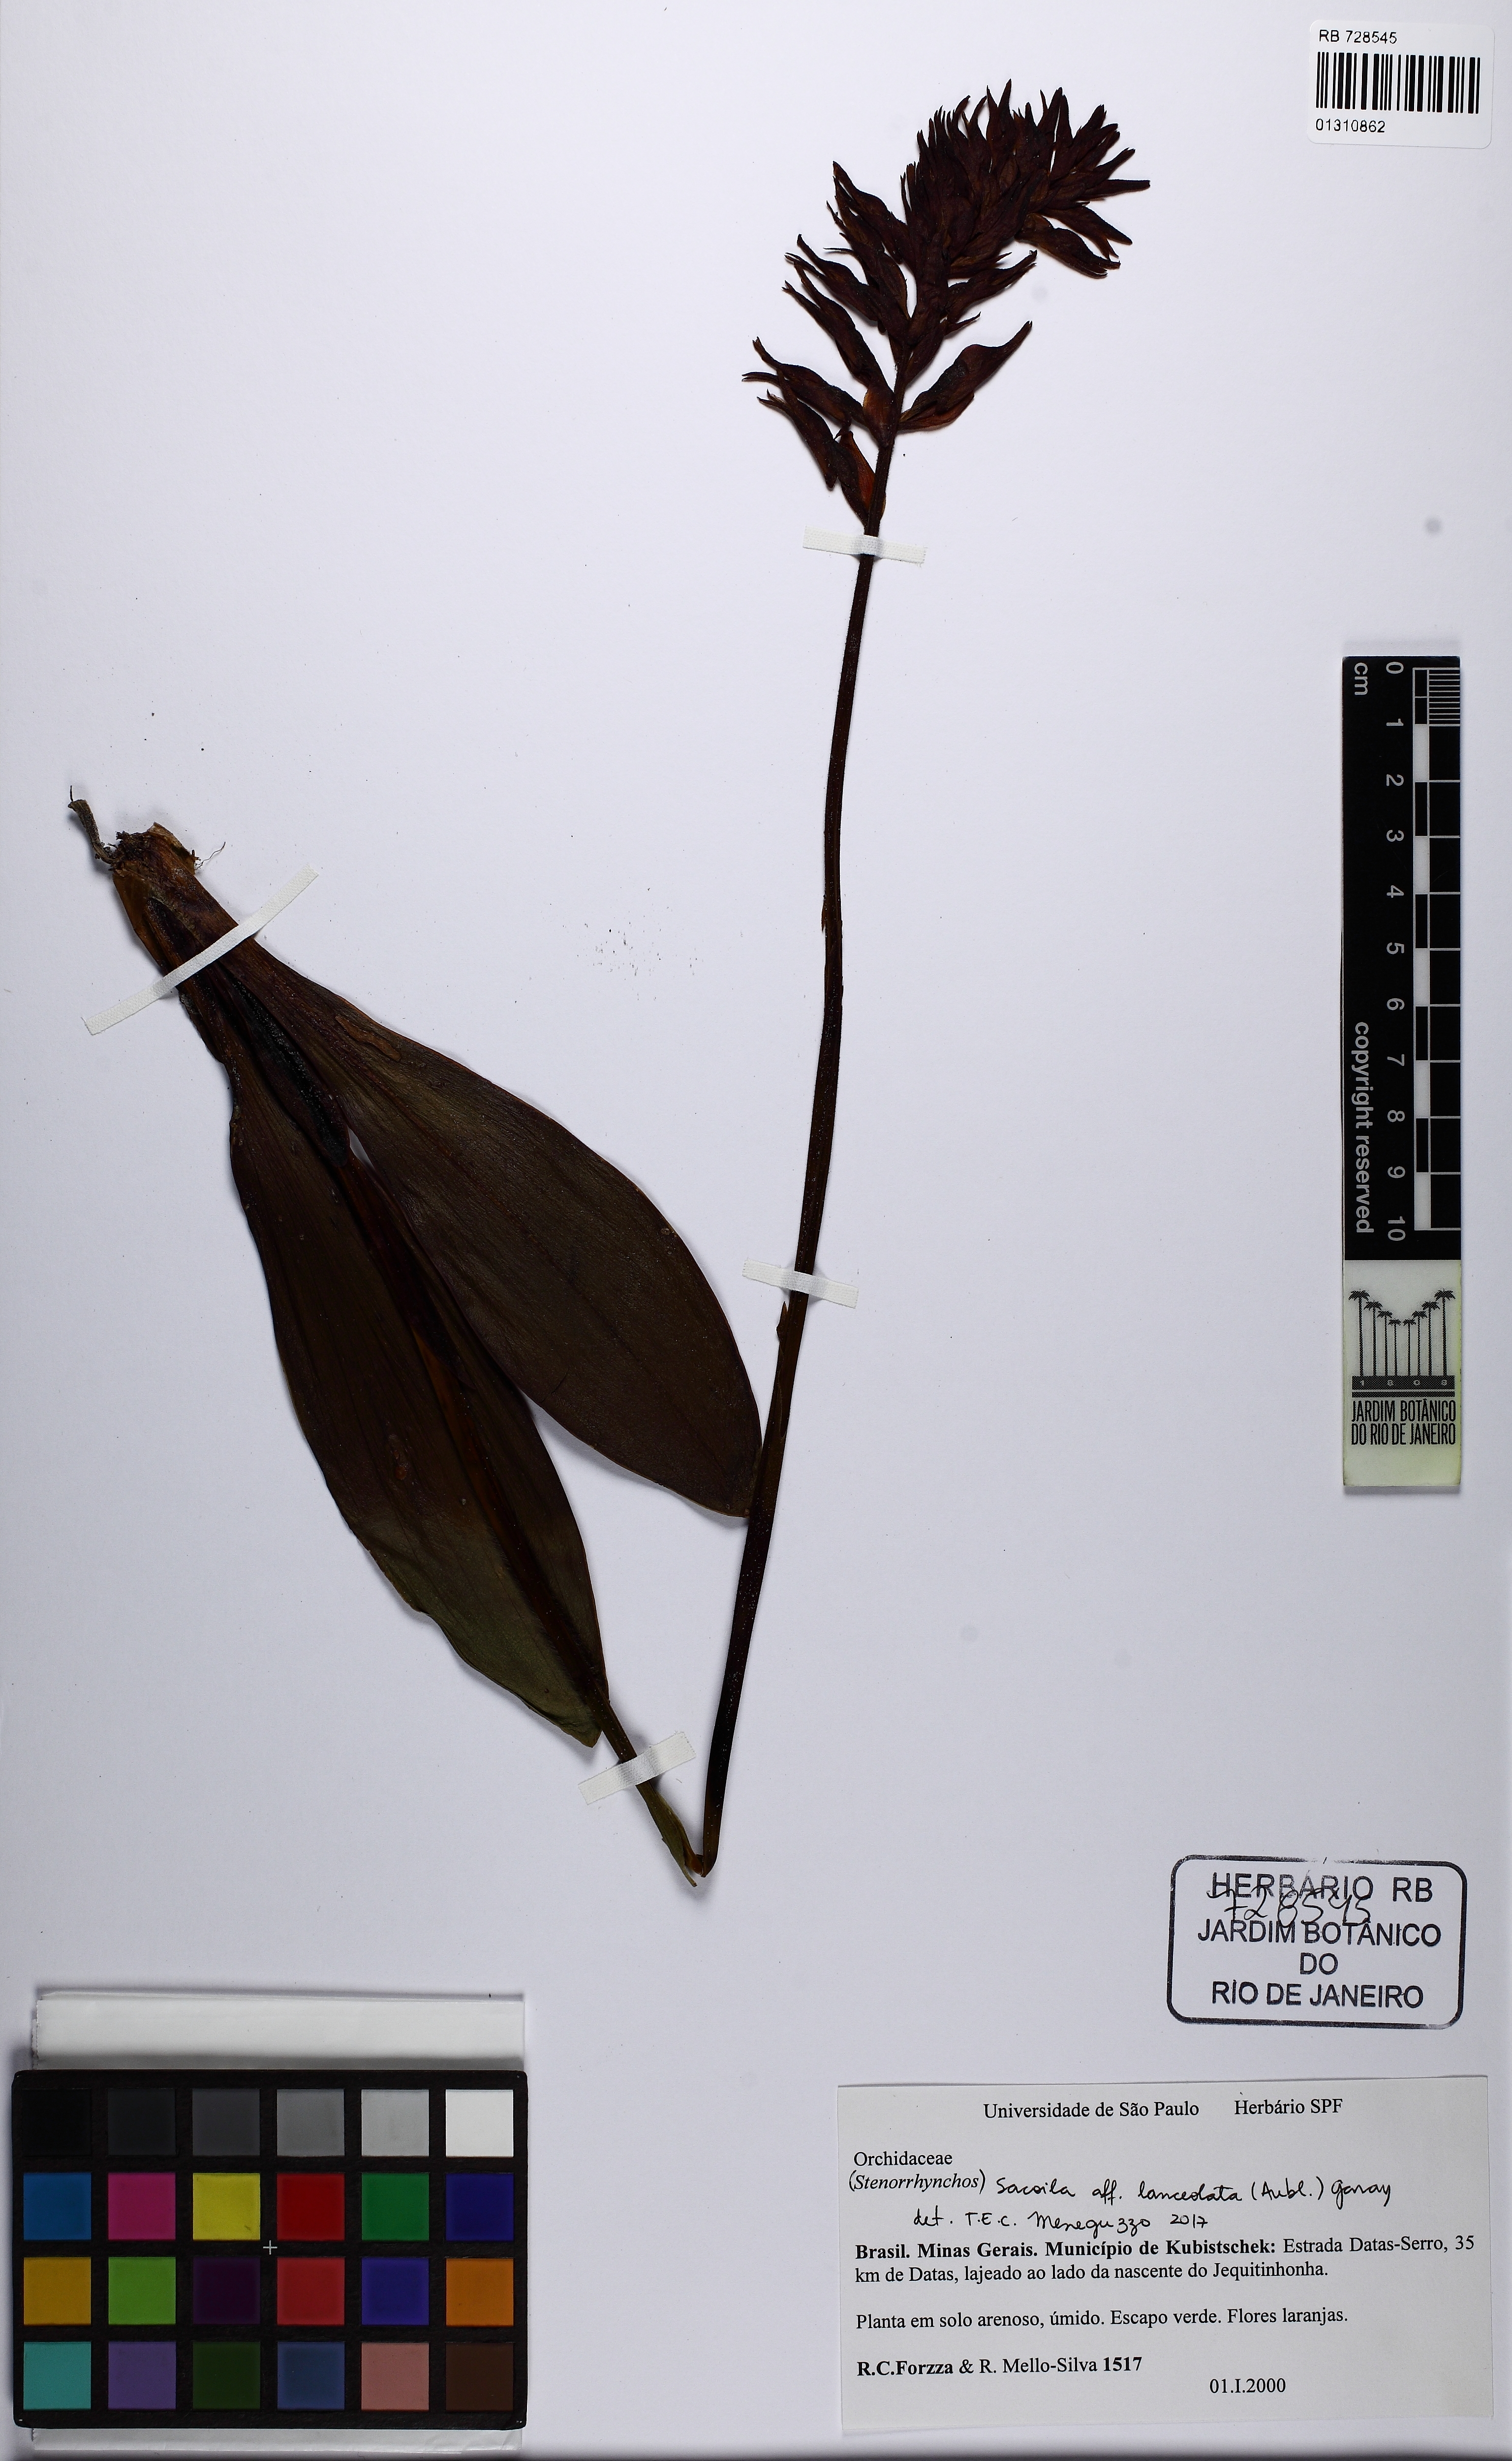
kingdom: Plantae
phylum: Tracheophyta
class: Liliopsida
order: Asparagales
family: Orchidaceae
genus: Sacoila
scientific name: Sacoila lanceolata
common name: Leafless beaked ladiestresses
